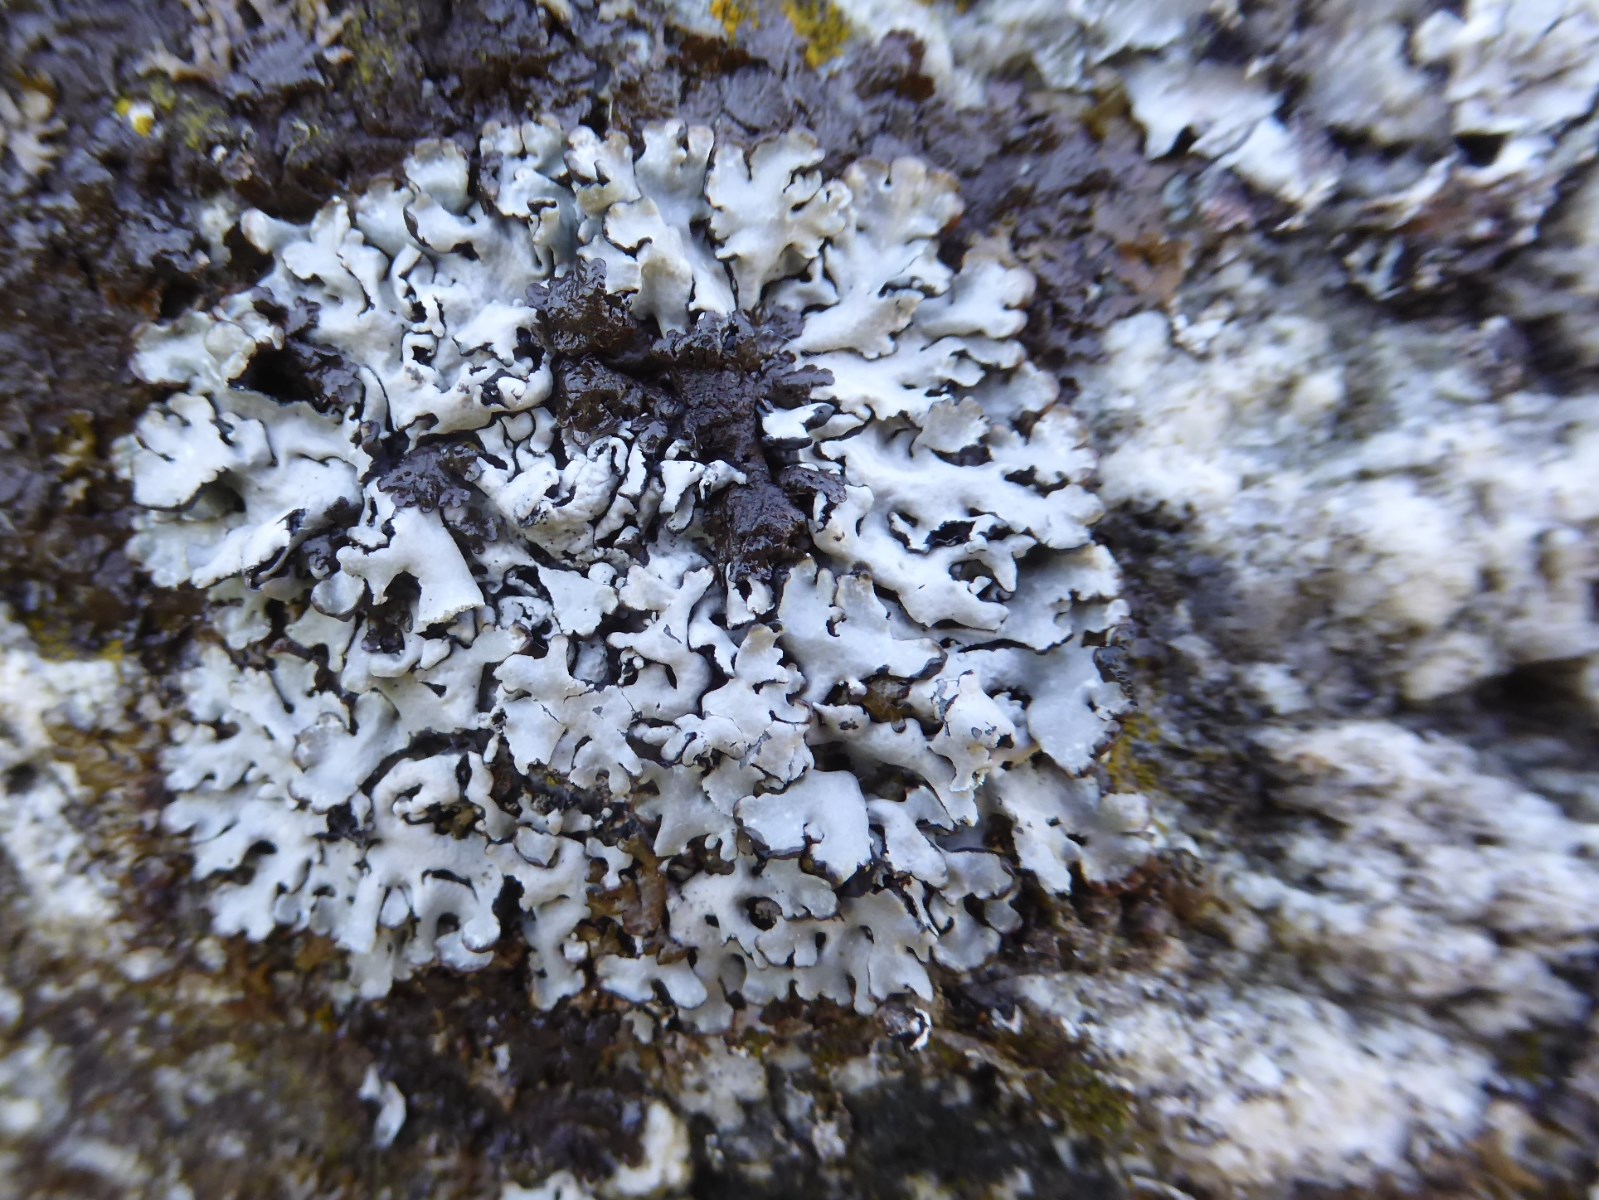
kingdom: Fungi
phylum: Ascomycota
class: Lecanoromycetes
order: Lecanorales
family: Parmeliaceae
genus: Hypogymnia
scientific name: Hypogymnia physodes
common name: almindelig kvistlav
